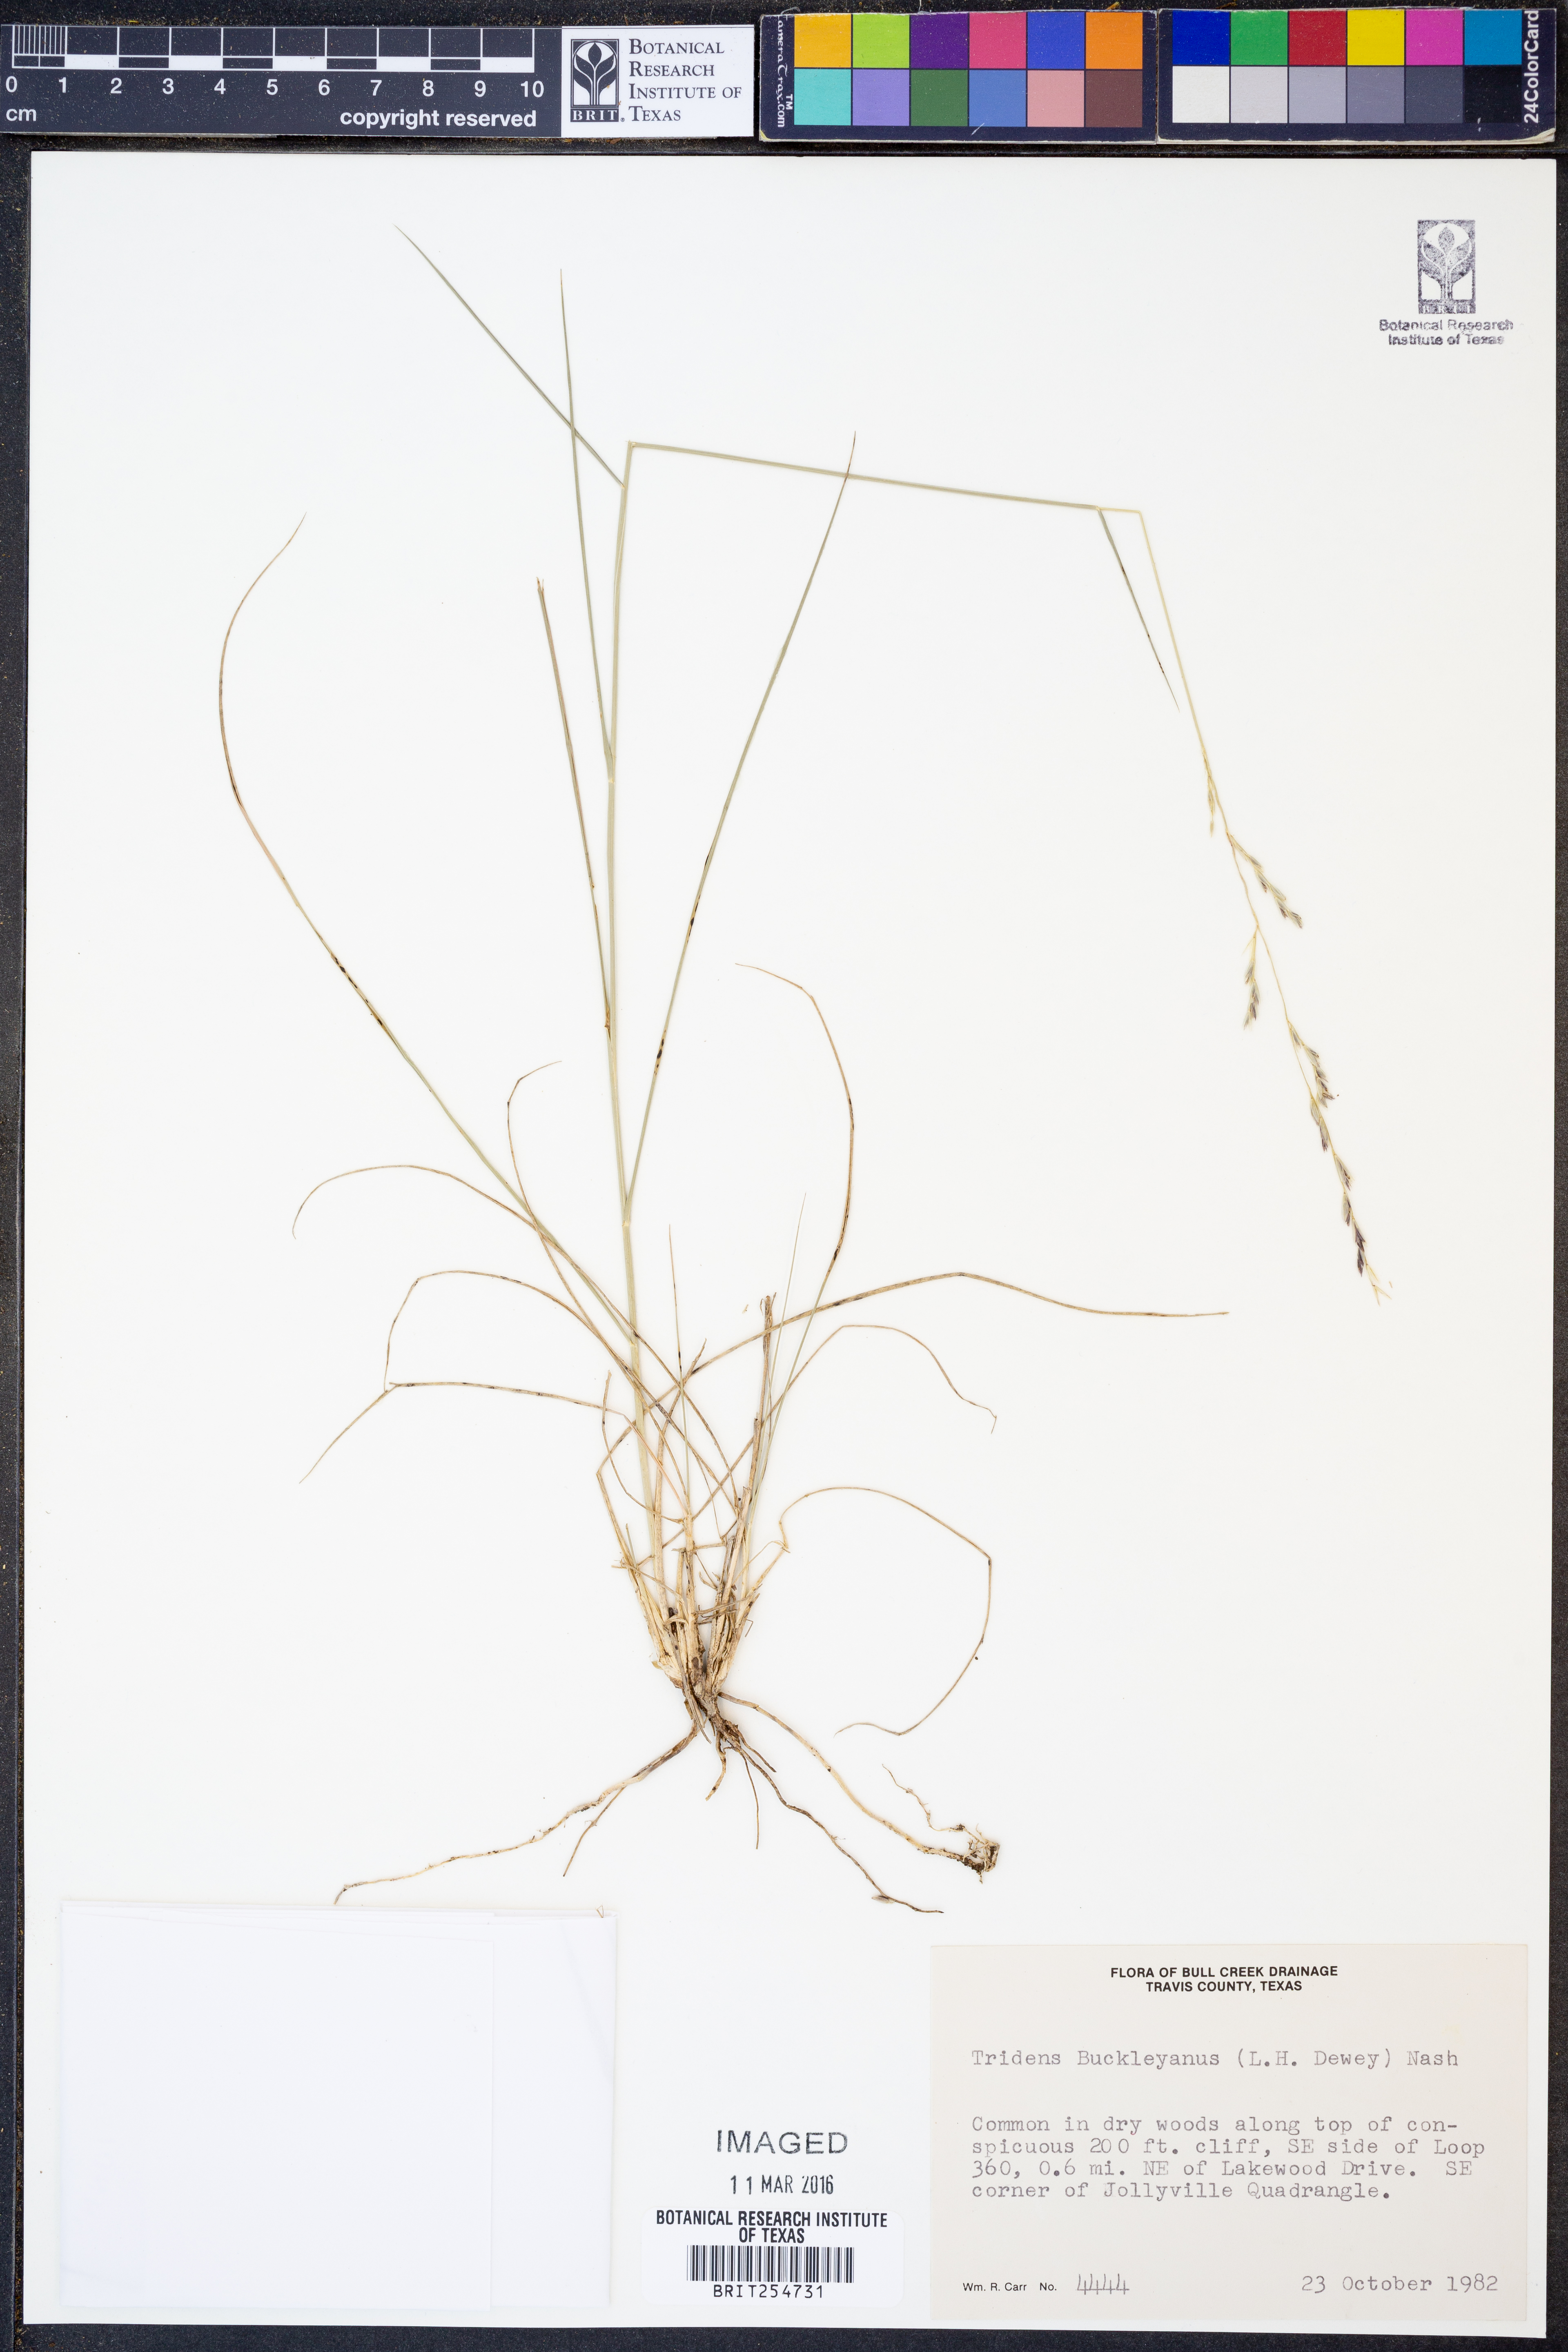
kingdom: Plantae
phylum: Tracheophyta
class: Liliopsida
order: Poales
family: Poaceae
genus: Tridentopsis
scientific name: Tridentopsis buckleyana
